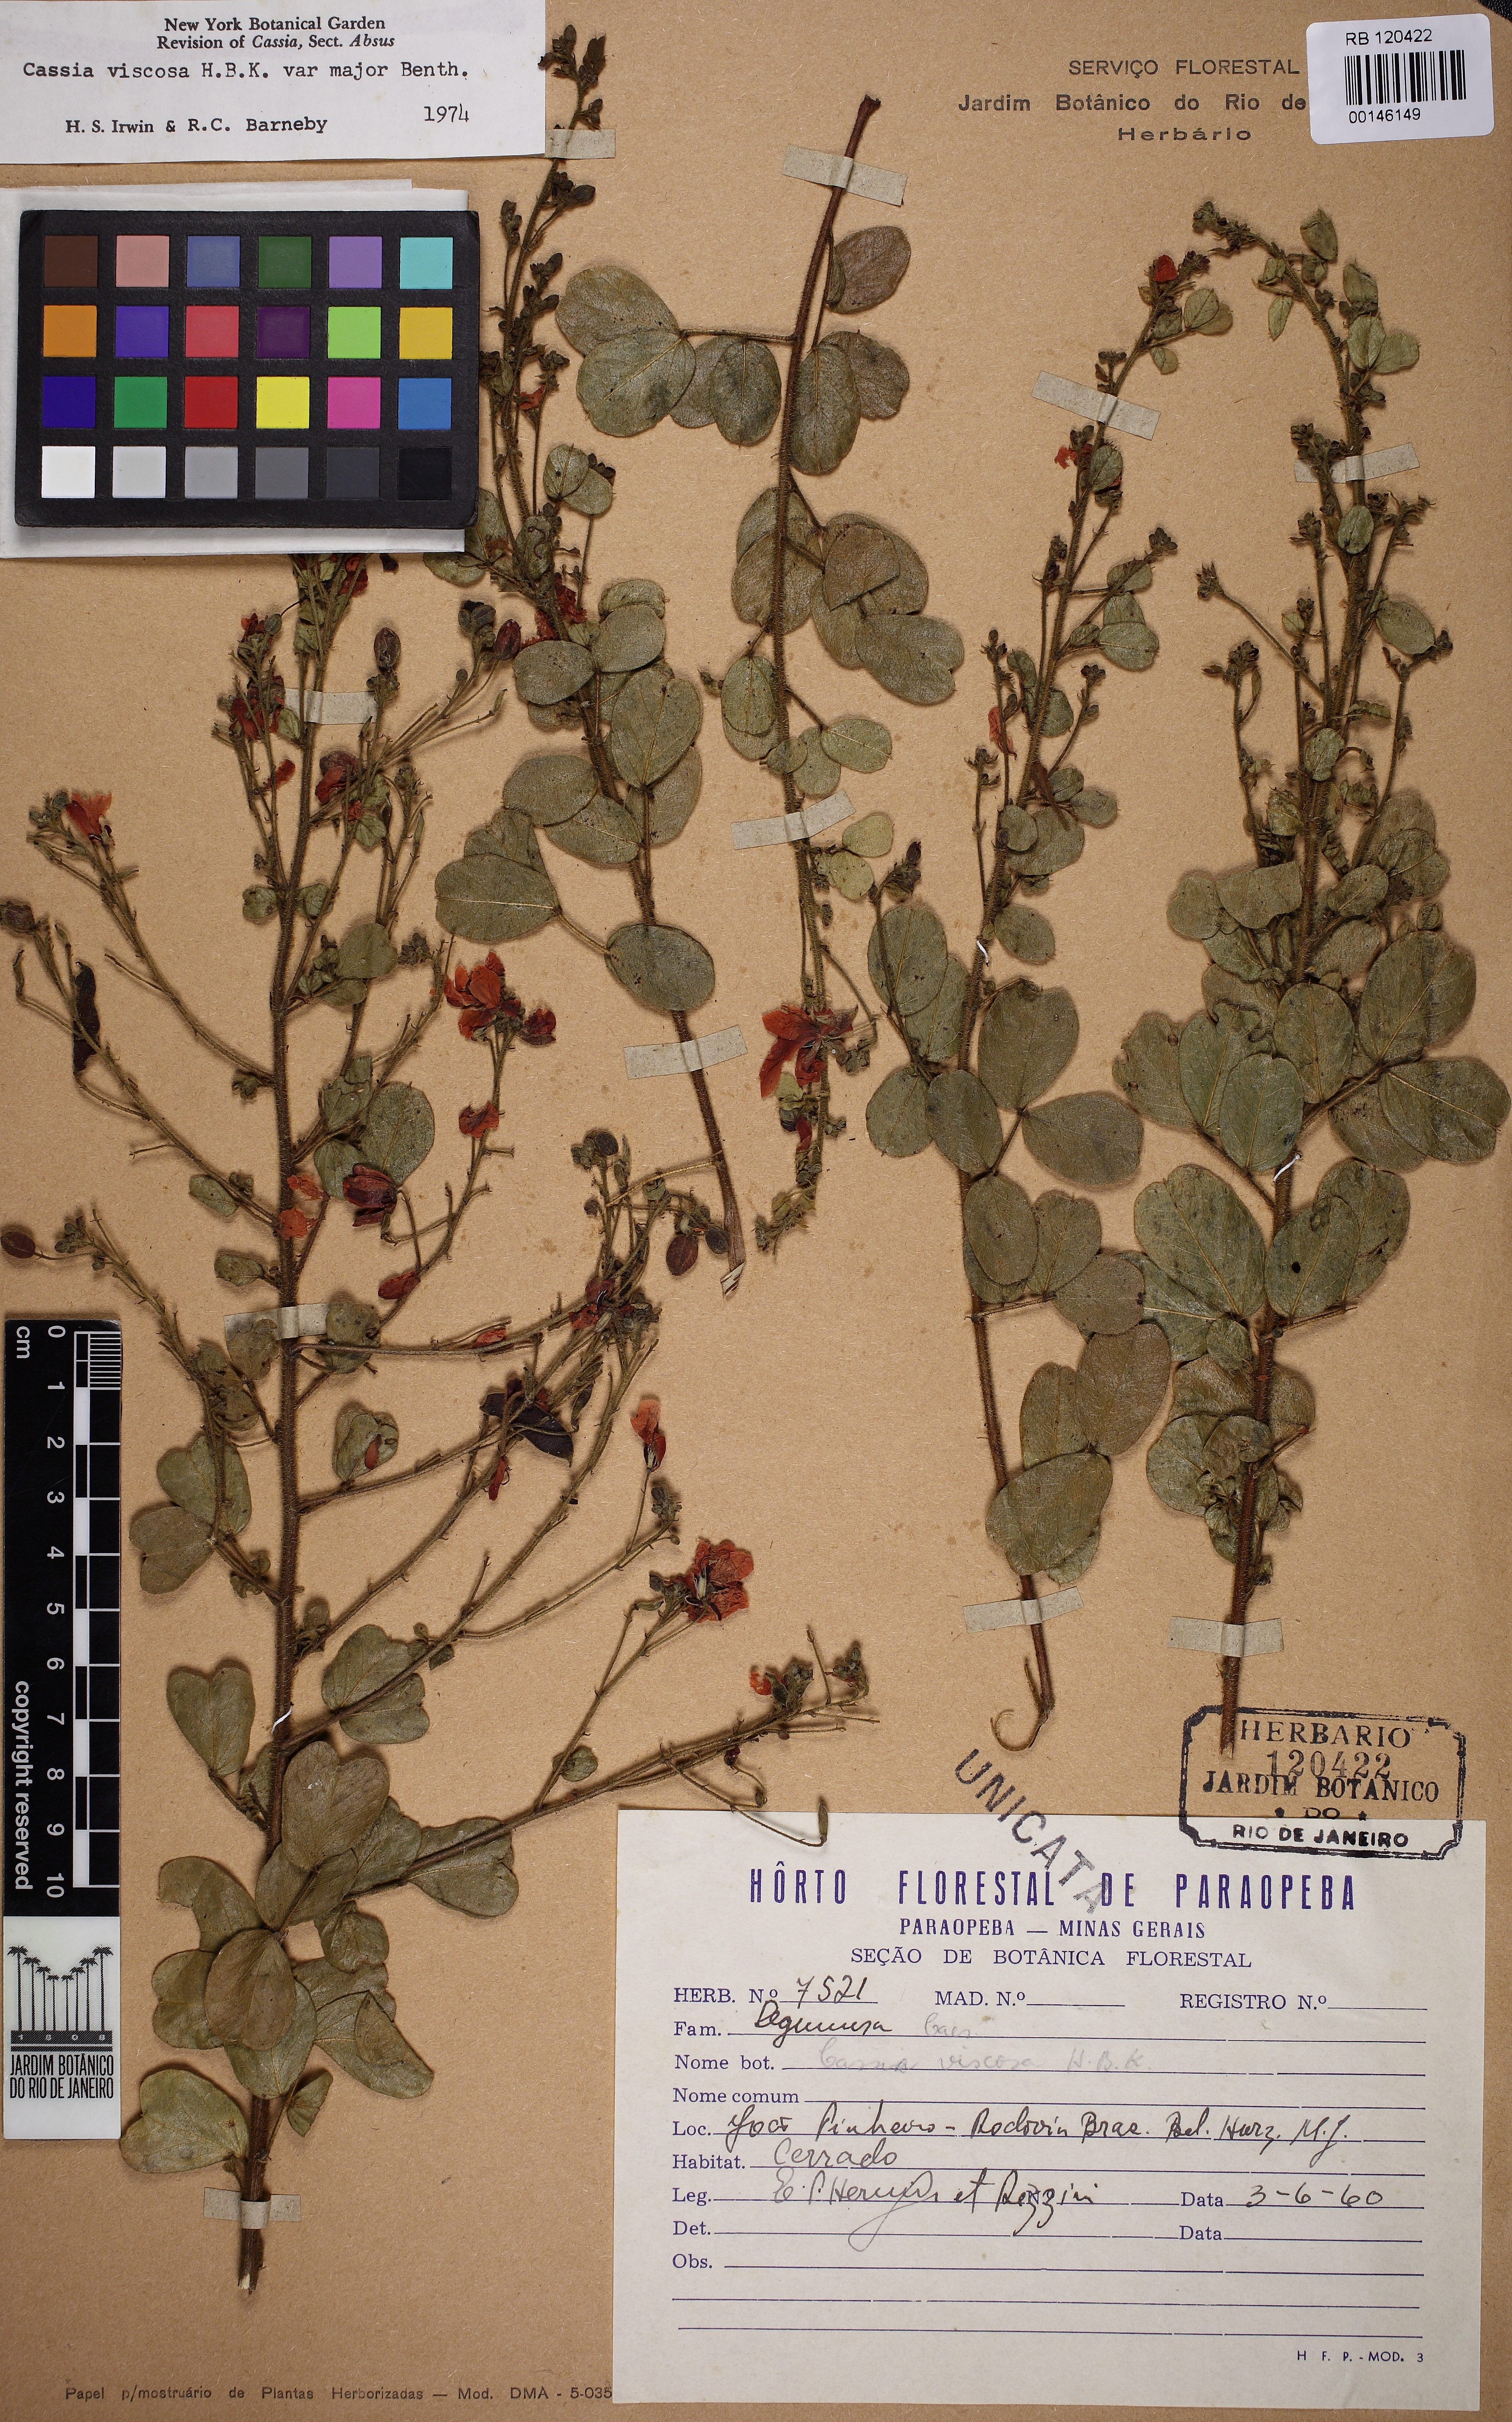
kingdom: Plantae
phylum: Tracheophyta
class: Magnoliopsida
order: Fabales
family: Fabaceae
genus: Chamaecrista
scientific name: Chamaecrista viscosa
